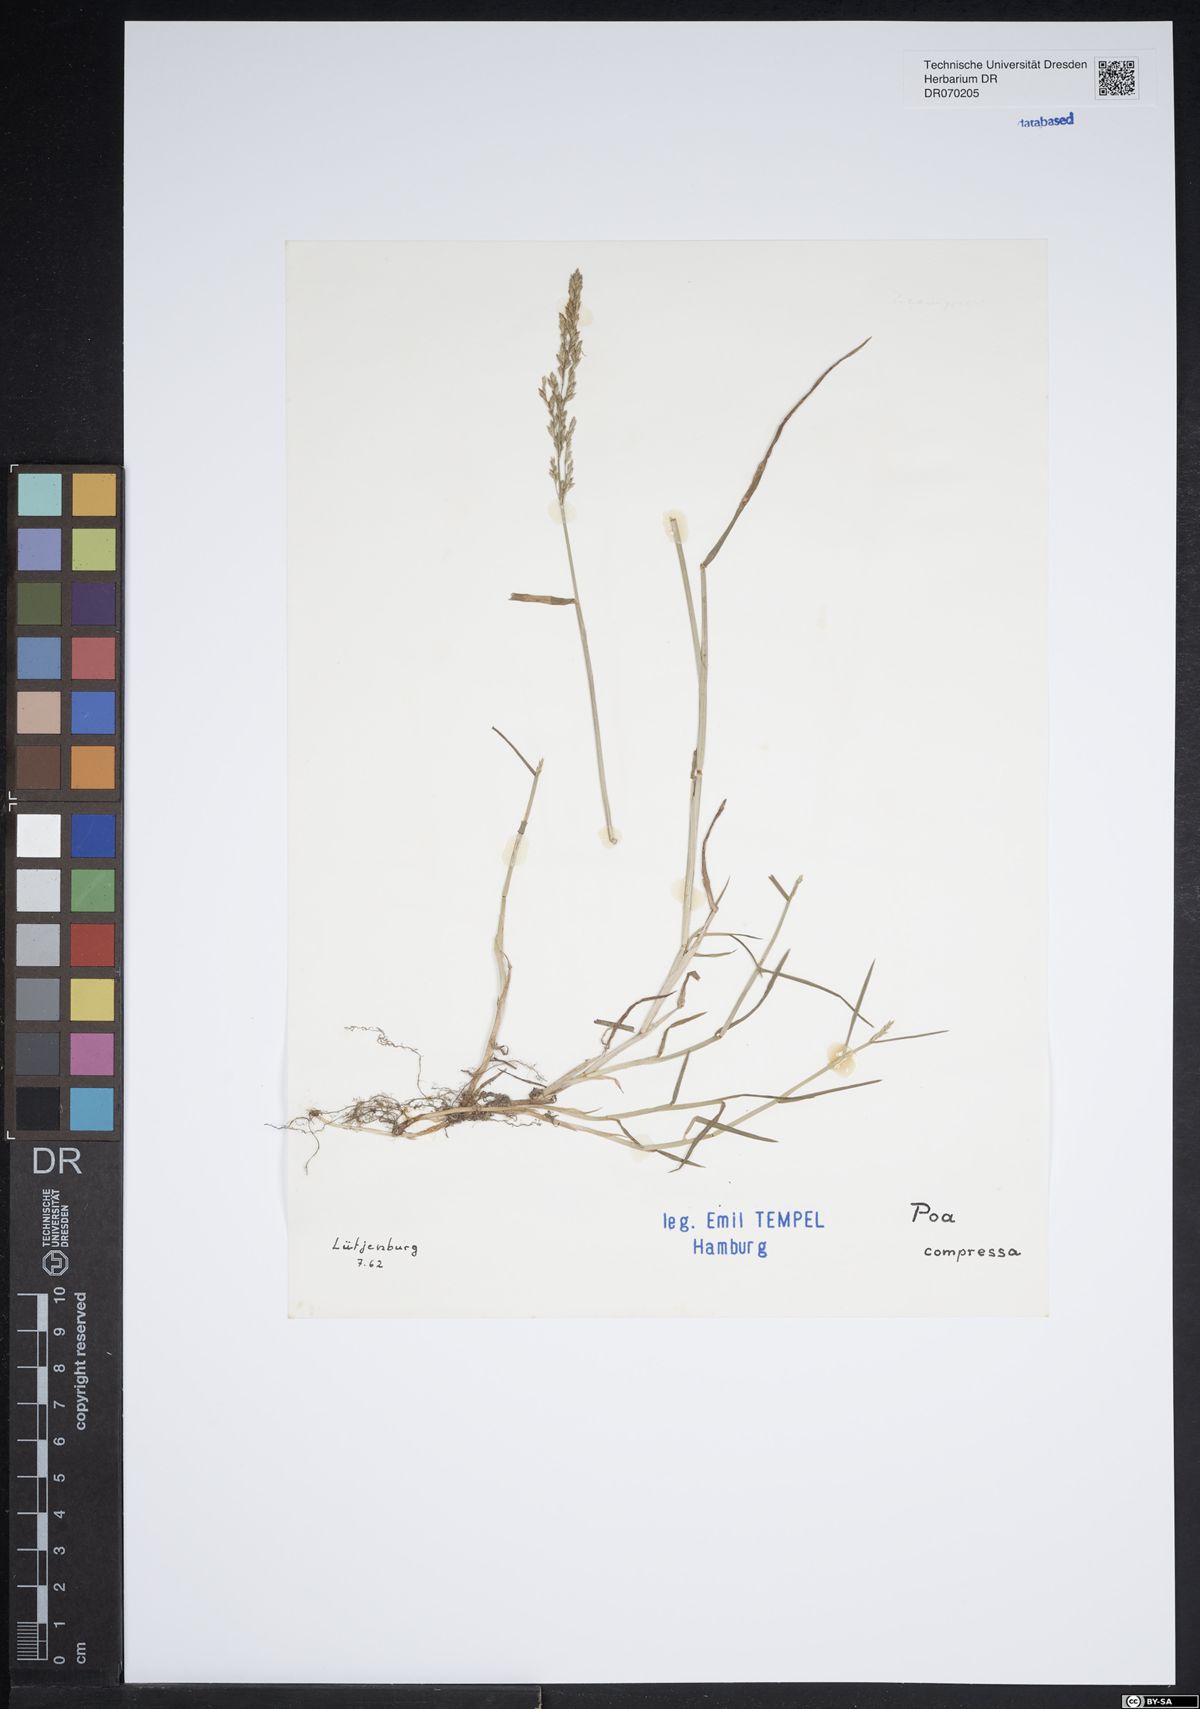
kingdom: Plantae
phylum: Tracheophyta
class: Liliopsida
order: Poales
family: Poaceae
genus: Poa
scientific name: Poa compressa
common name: Canada bluegrass
